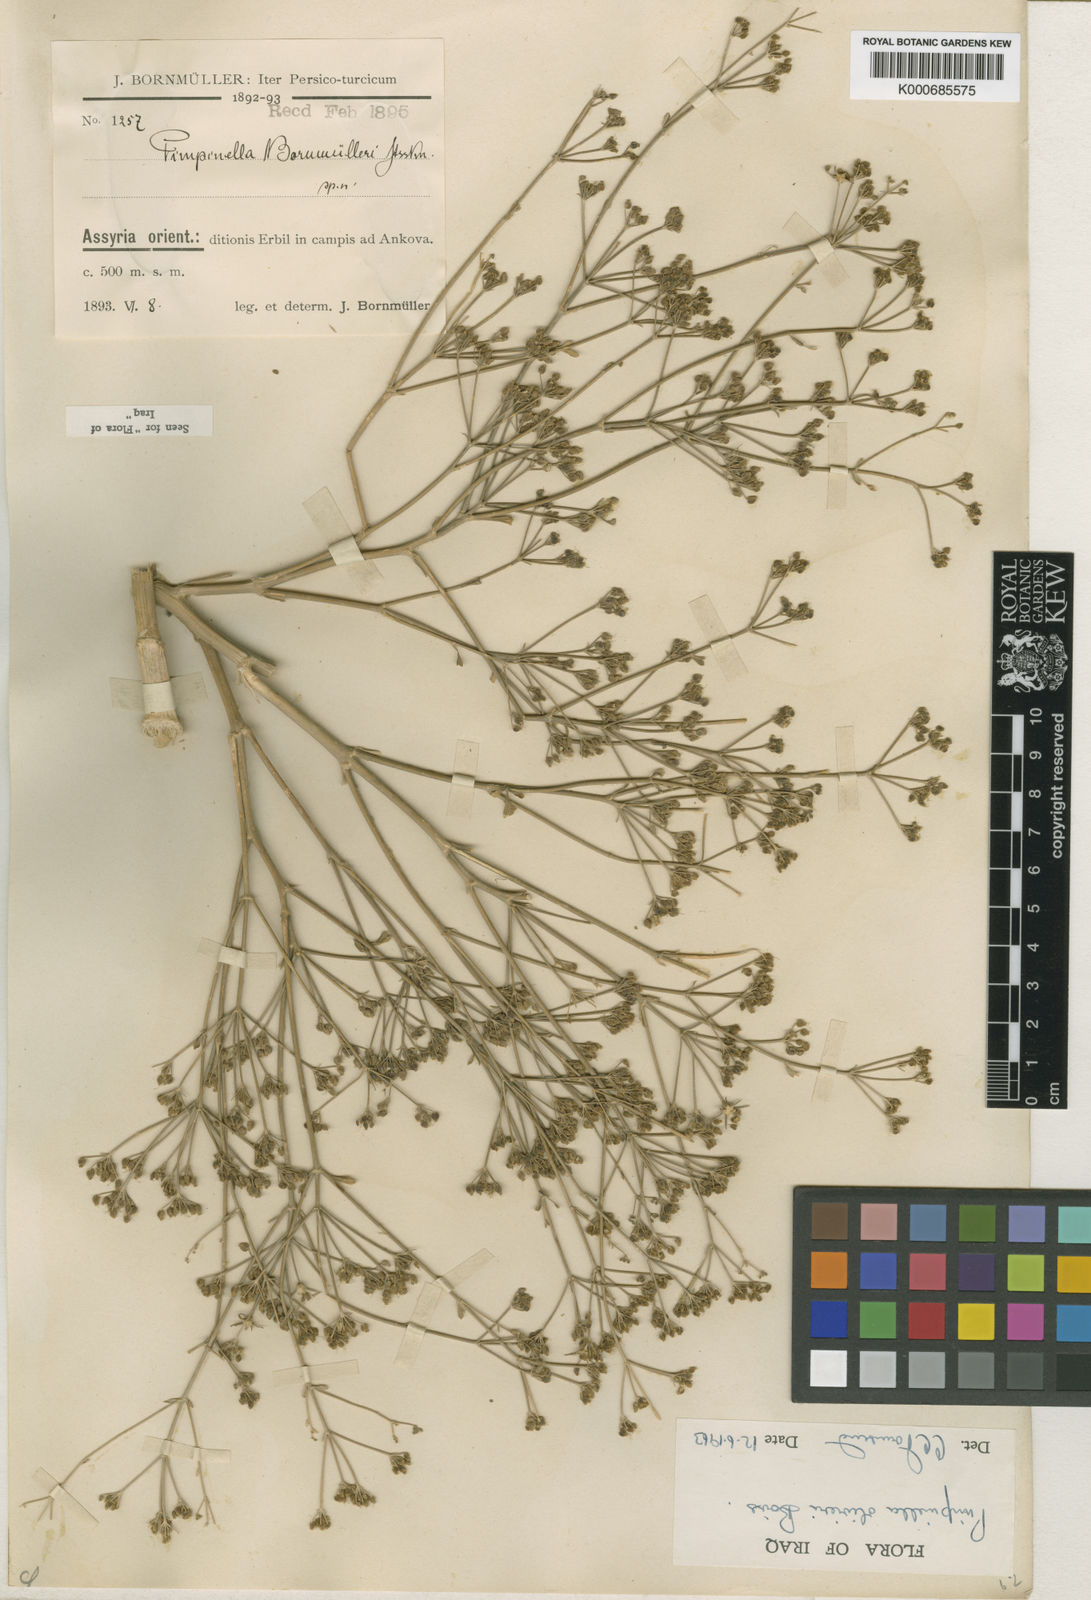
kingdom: Plantae
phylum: Tracheophyta
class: Magnoliopsida
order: Apiales
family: Apiaceae
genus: Pimpinella
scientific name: Pimpinella
